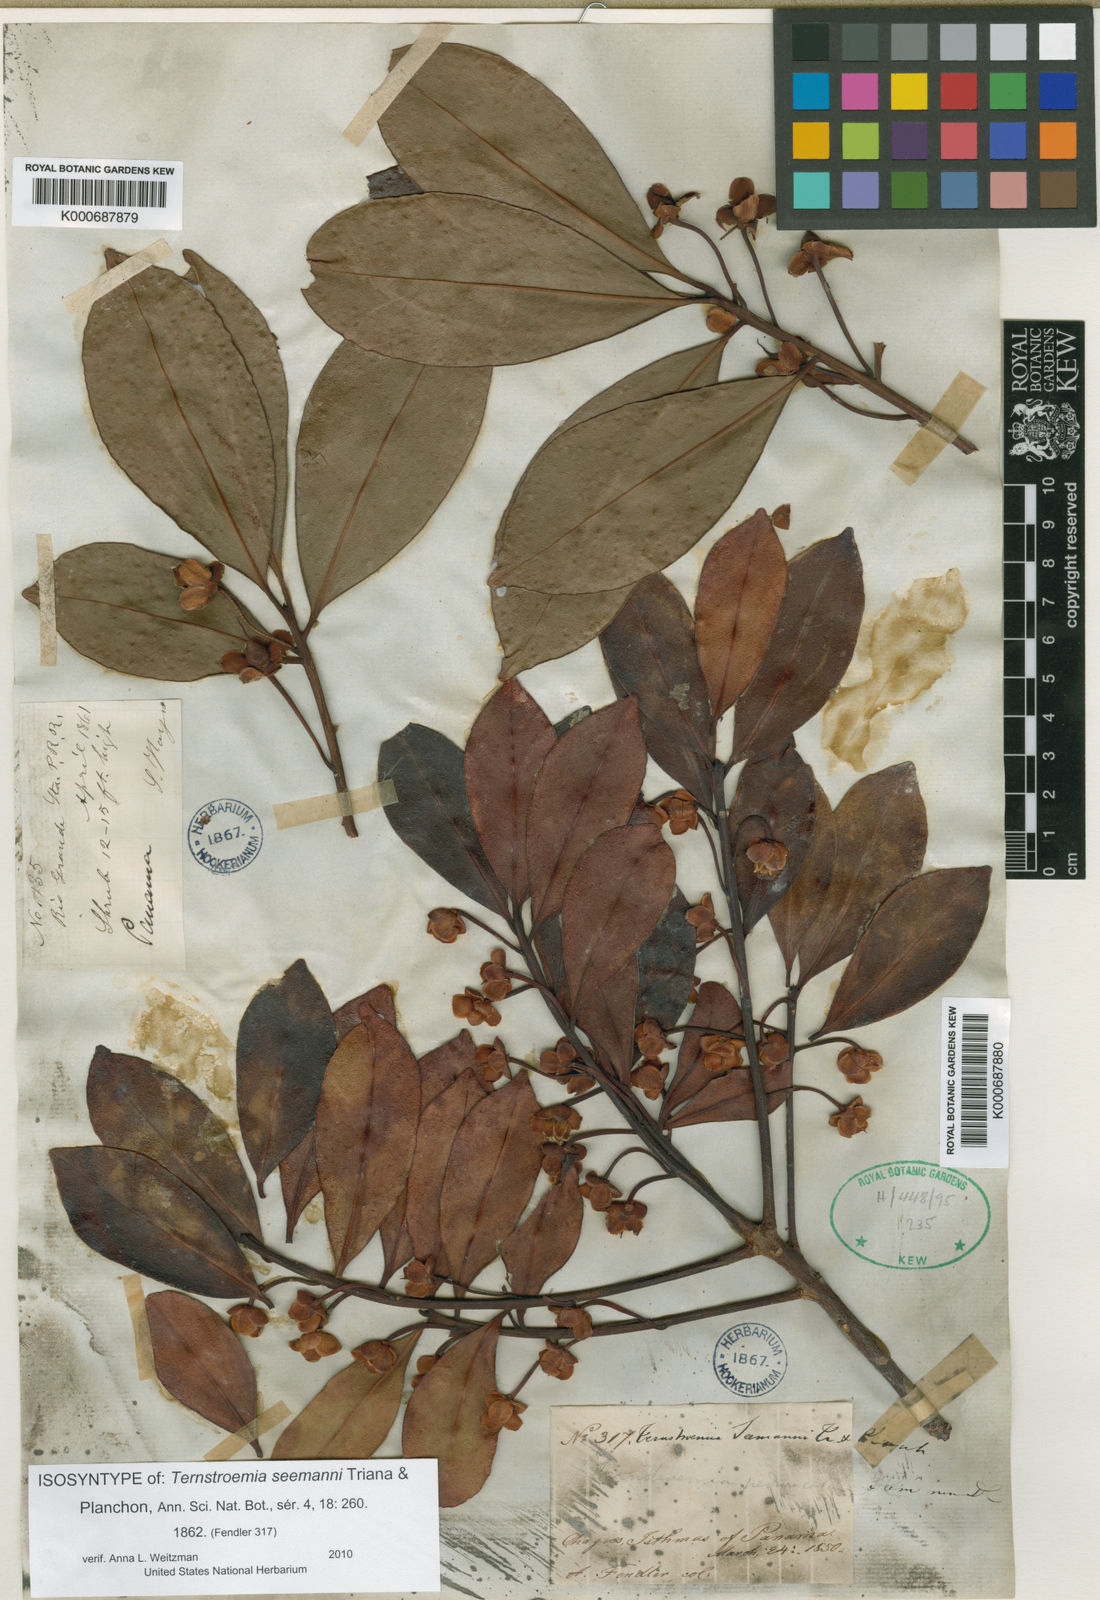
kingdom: Plantae
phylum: Tracheophyta
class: Magnoliopsida
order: Ericales
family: Pentaphylacaceae
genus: Ternstroemia
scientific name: Ternstroemia tepezapote
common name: Copey vera
